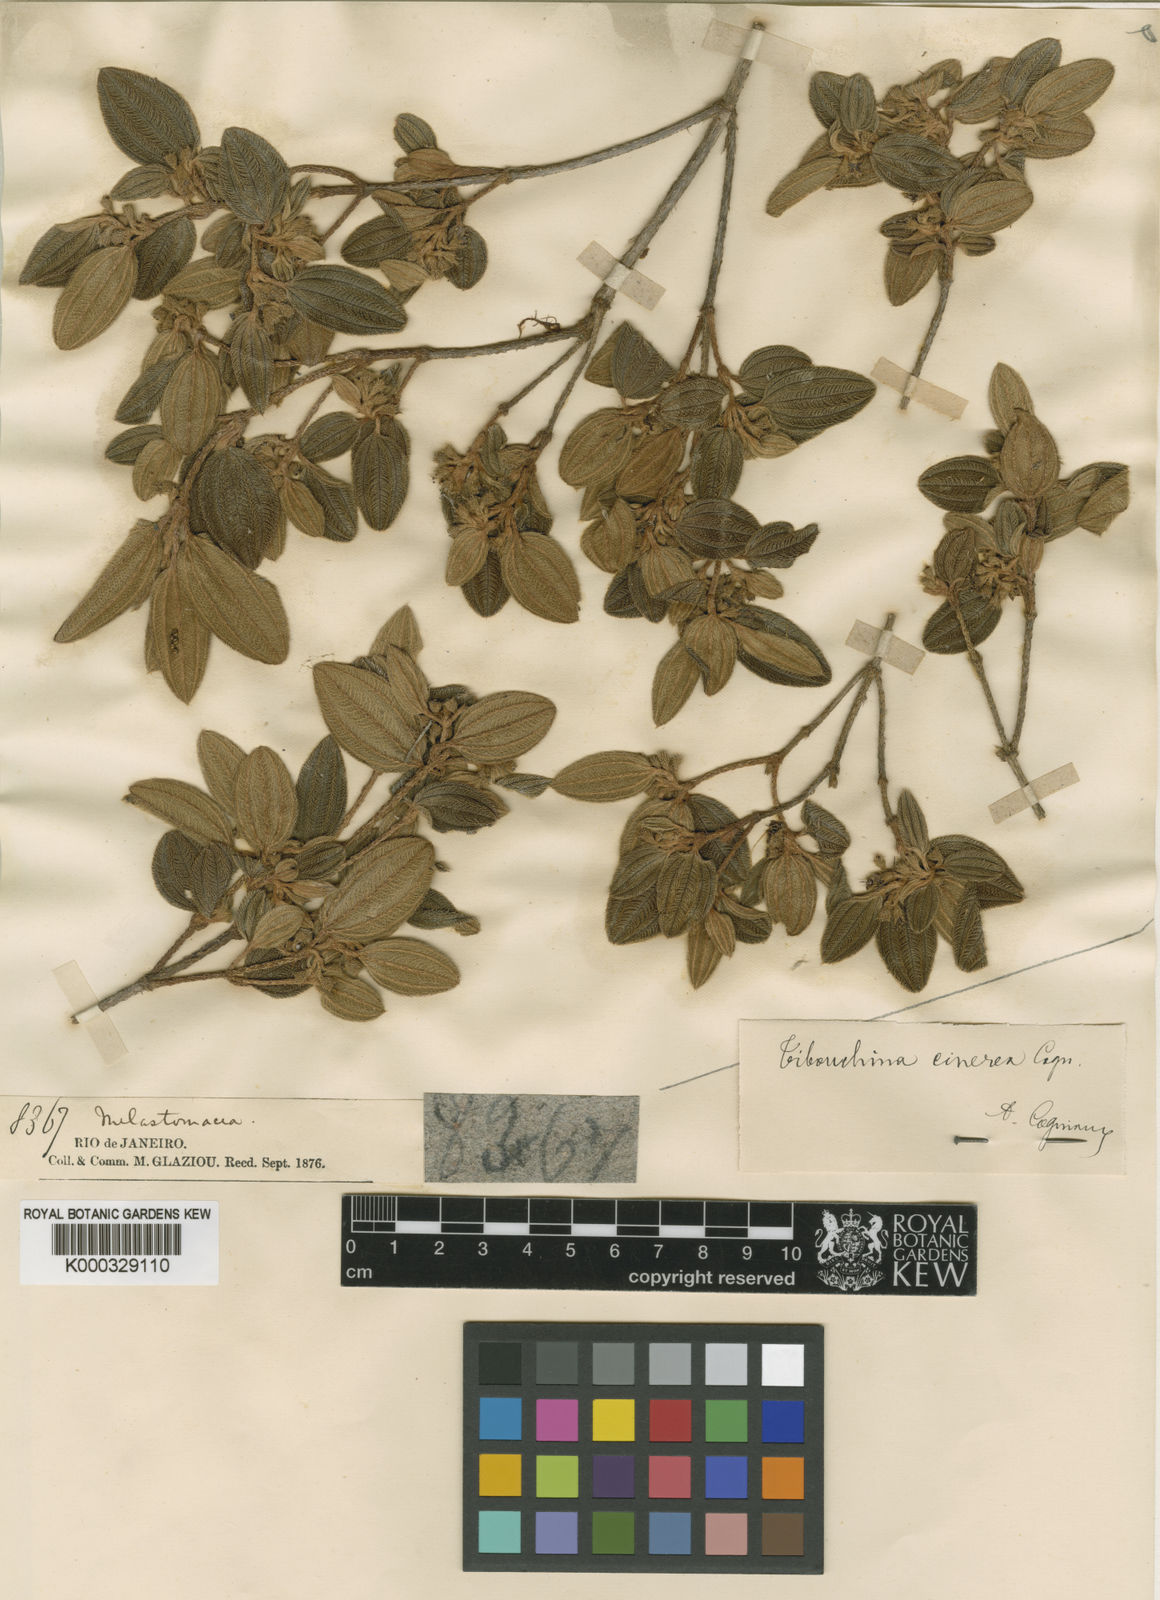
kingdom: Plantae
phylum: Tracheophyta
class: Magnoliopsida
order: Myrtales
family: Melastomataceae
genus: Pleroma
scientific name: Pleroma cinereum
